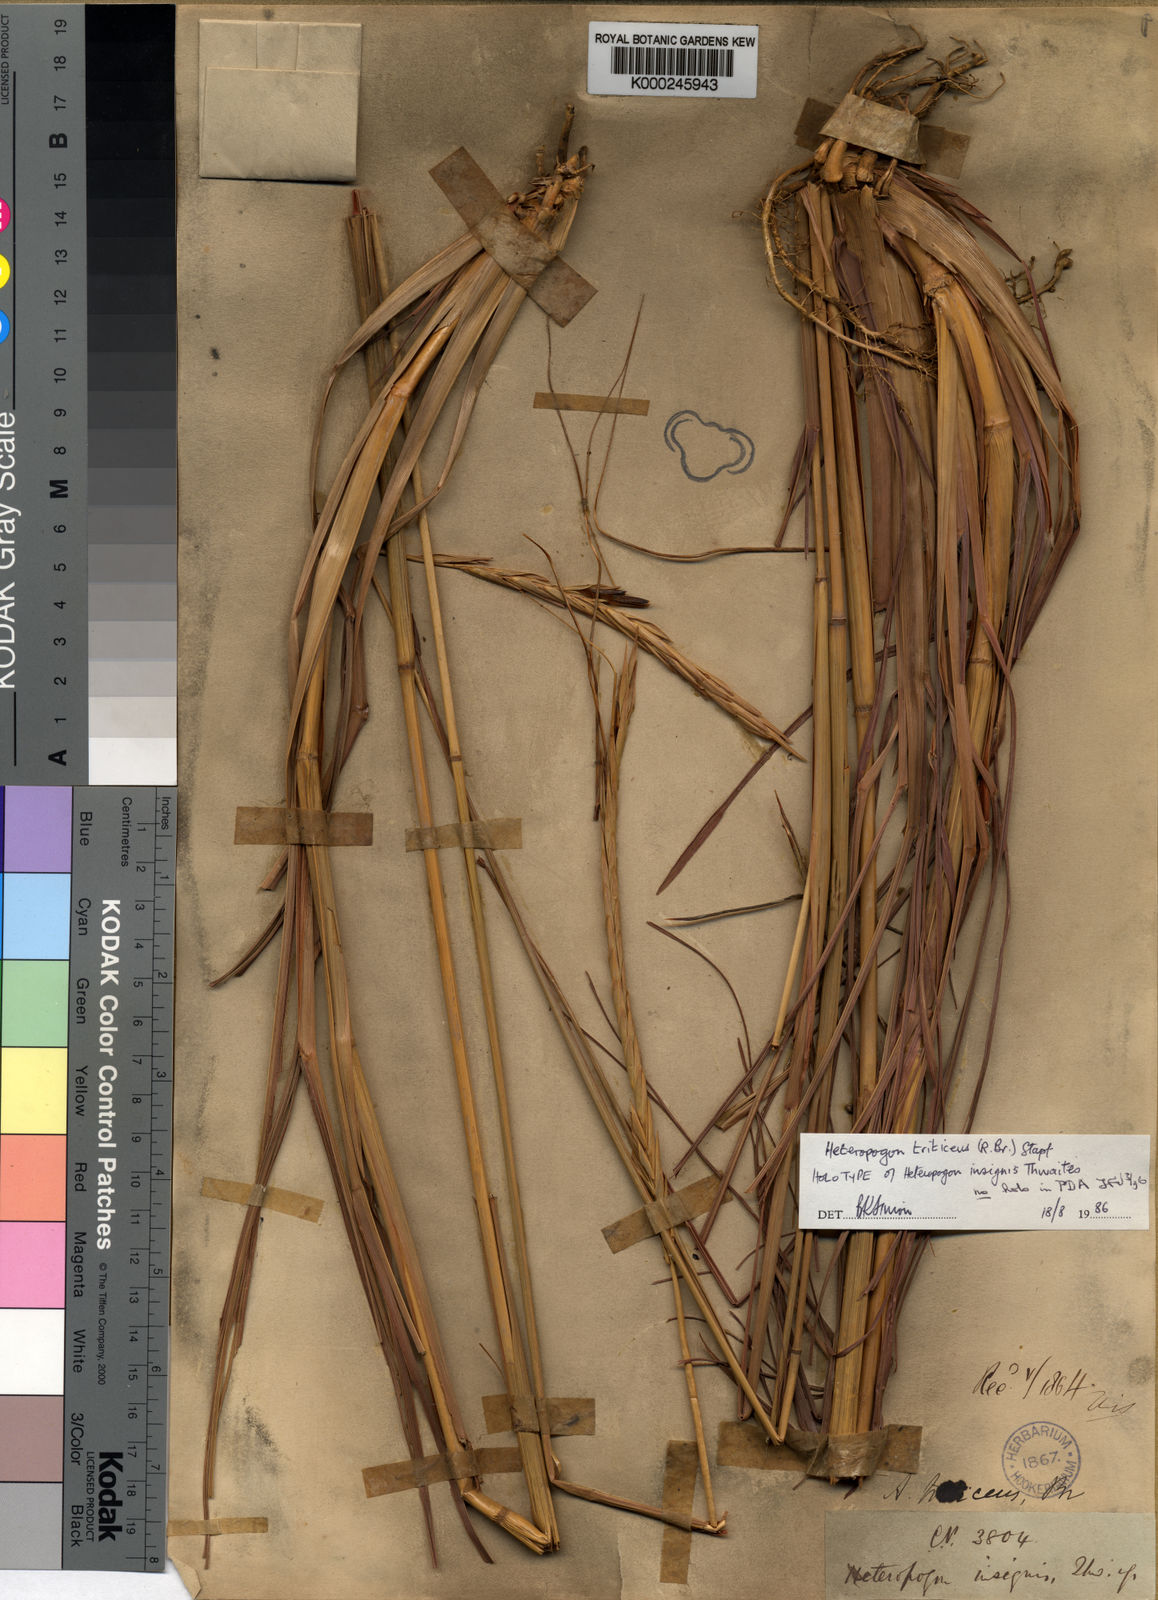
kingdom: Plantae
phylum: Tracheophyta
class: Liliopsida
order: Poales
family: Poaceae
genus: Heteropogon
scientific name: Heteropogon triticeus
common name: Sugar grass
